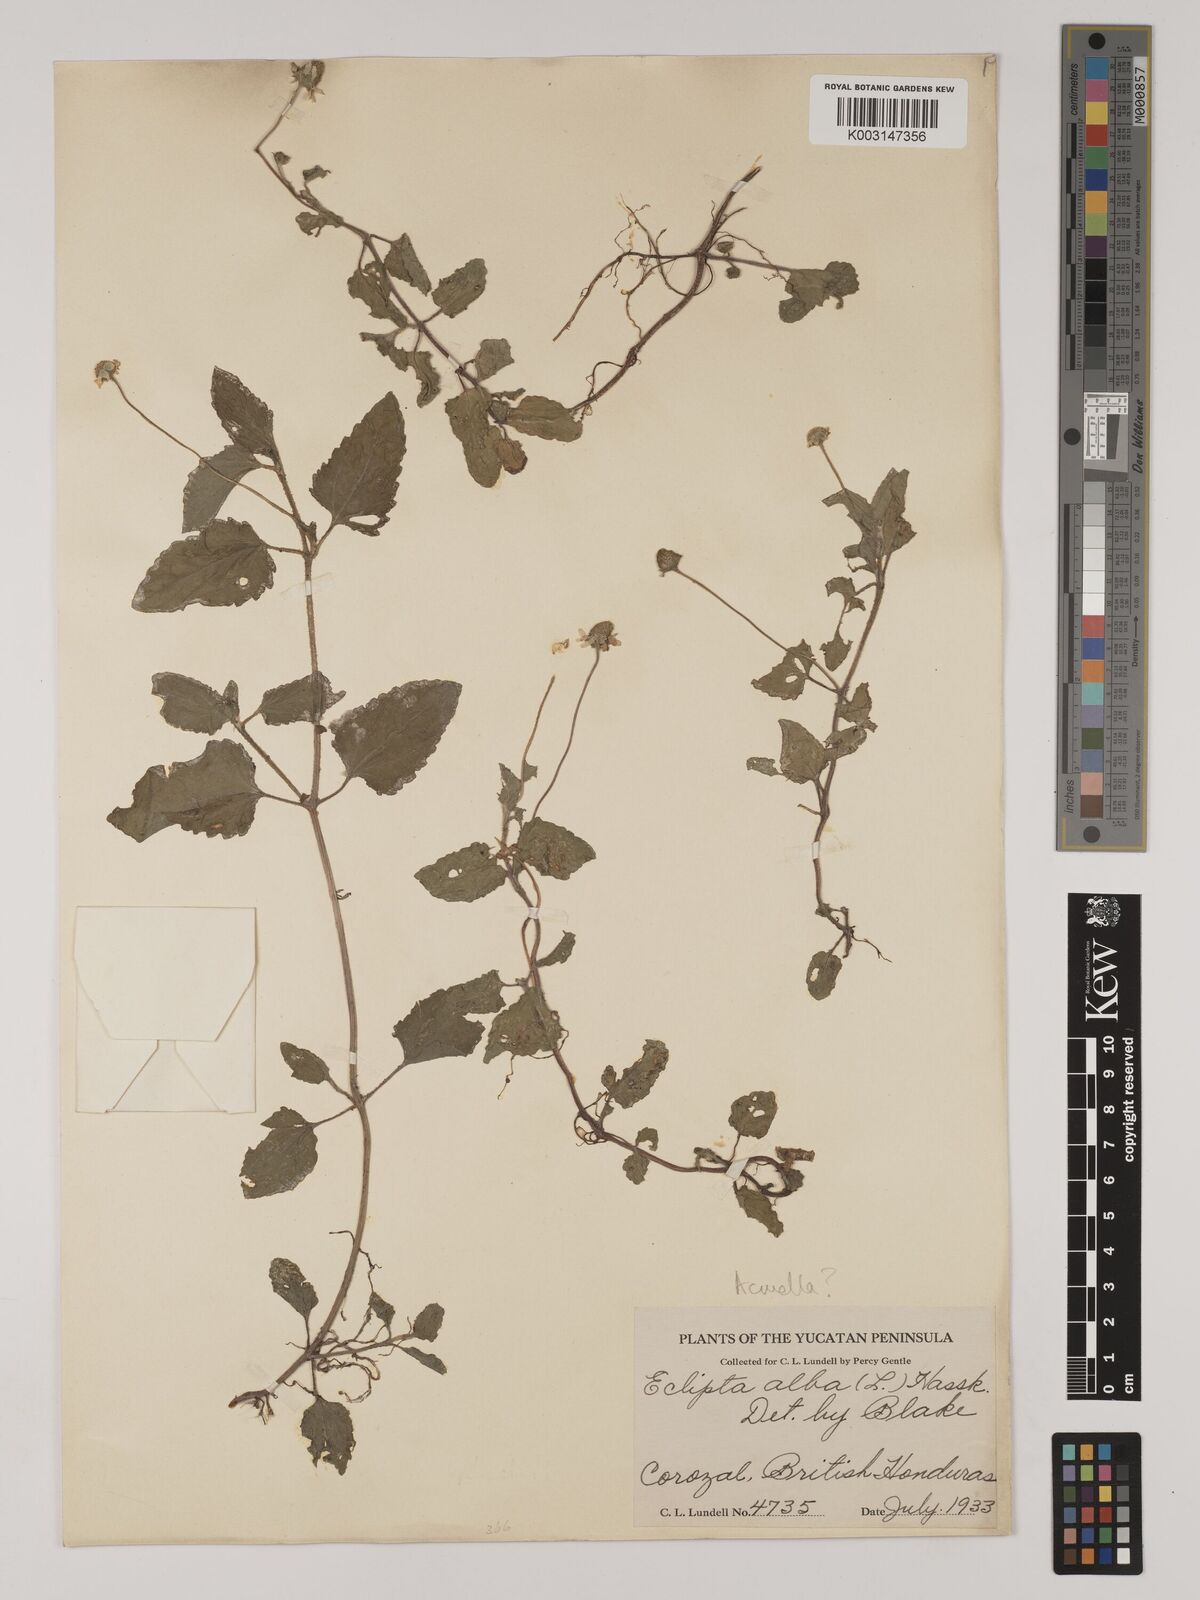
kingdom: Plantae
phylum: Tracheophyta
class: Magnoliopsida
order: Asterales
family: Asteraceae
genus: Acmella
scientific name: Acmella
